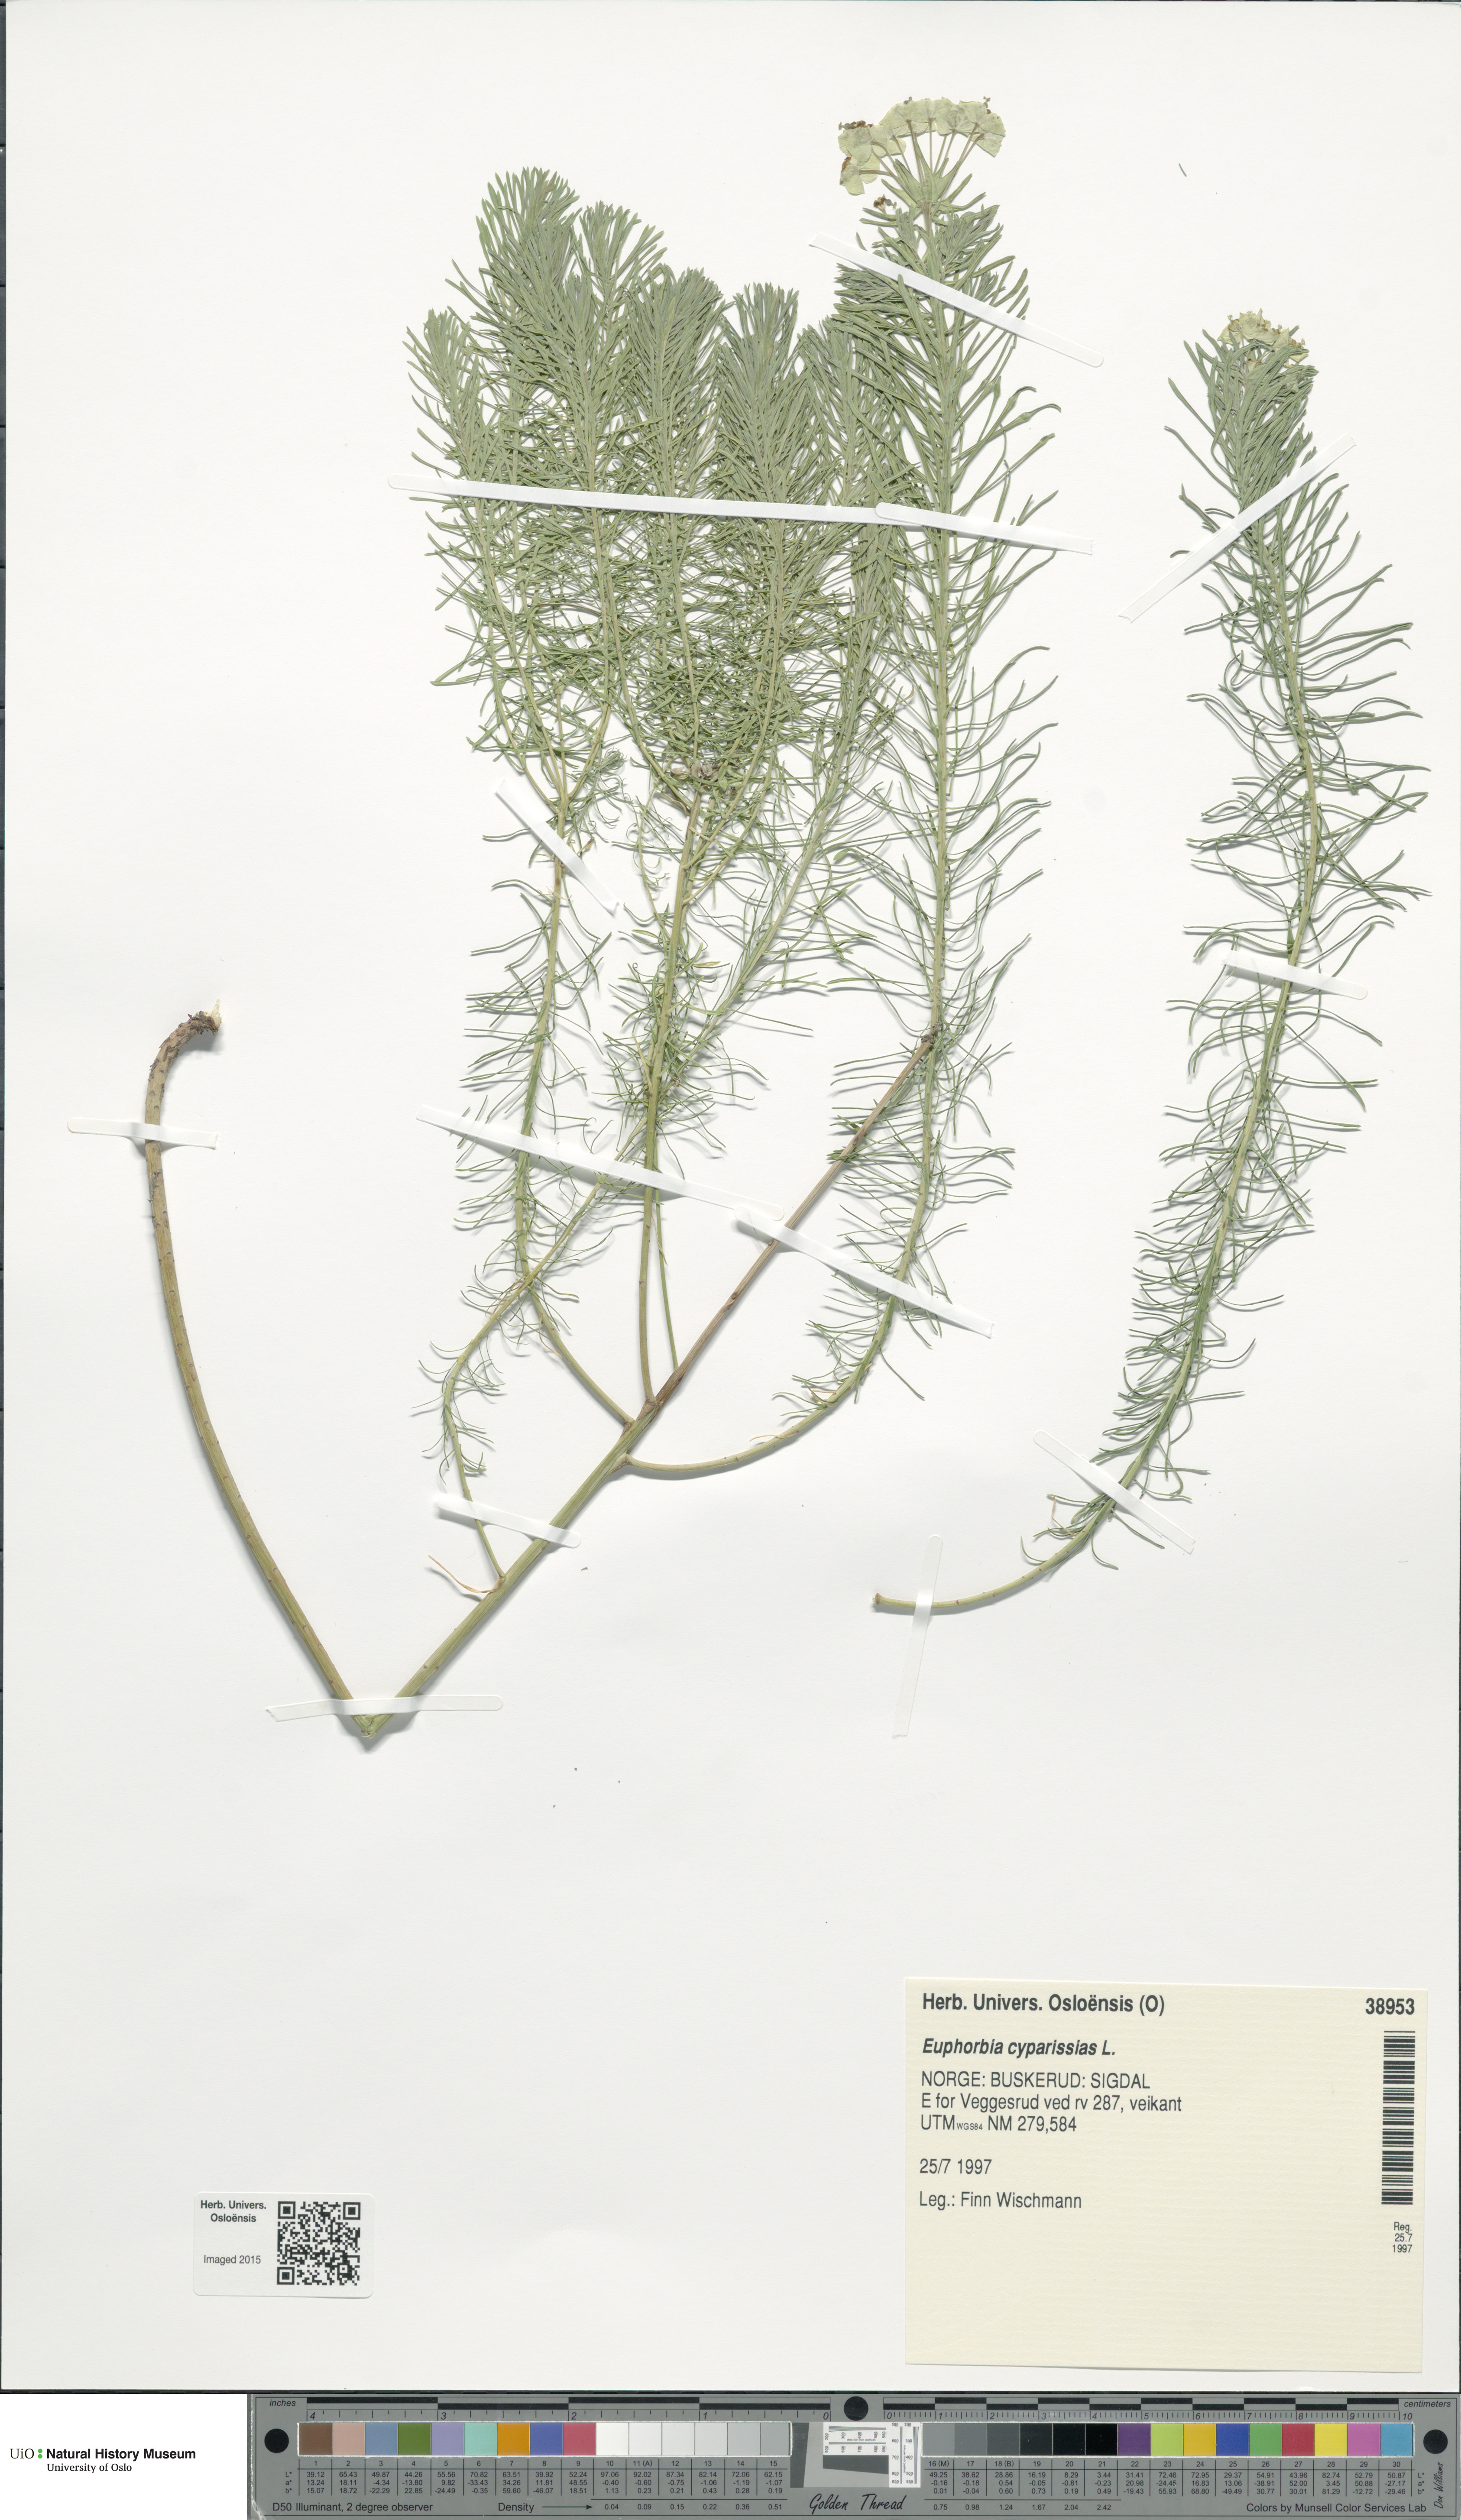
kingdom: Plantae
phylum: Tracheophyta
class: Magnoliopsida
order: Malpighiales
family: Euphorbiaceae
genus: Euphorbia
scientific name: Euphorbia cyparissias
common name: Cypress spurge
